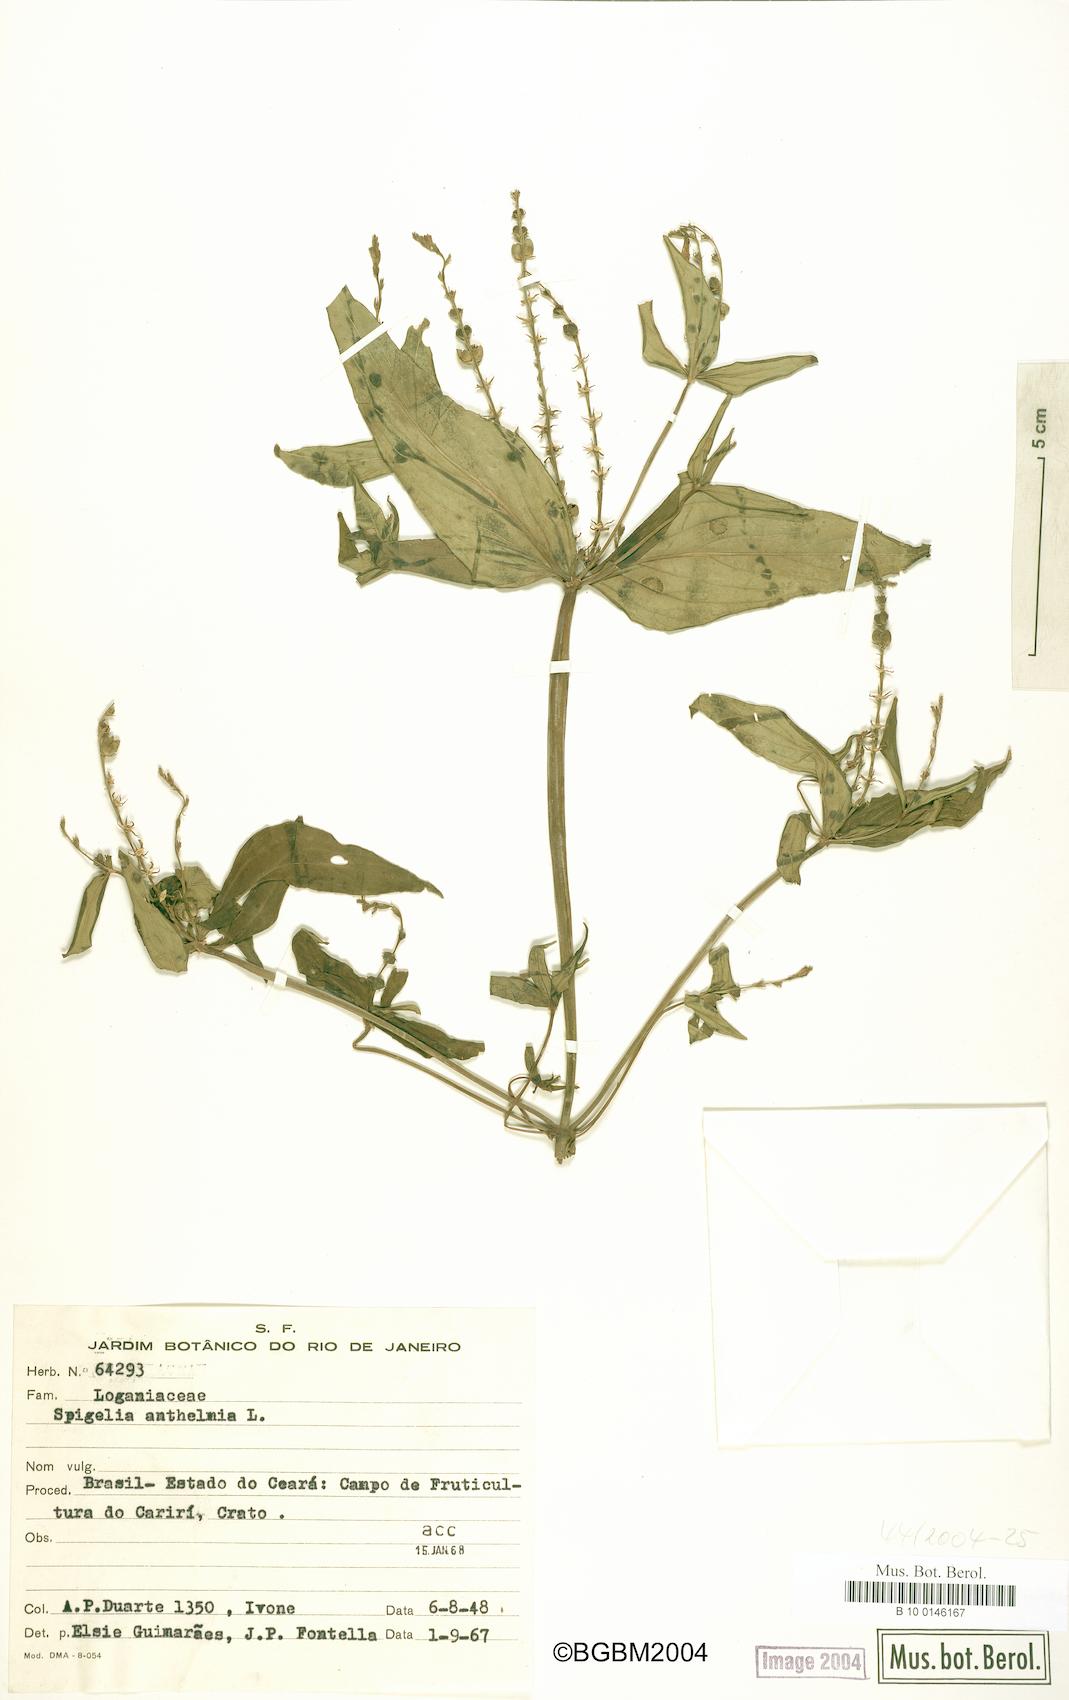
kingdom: Plantae
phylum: Tracheophyta
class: Magnoliopsida
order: Gentianales
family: Loganiaceae
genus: Spigelia
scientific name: Spigelia anthelmia
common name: West indian-pink
